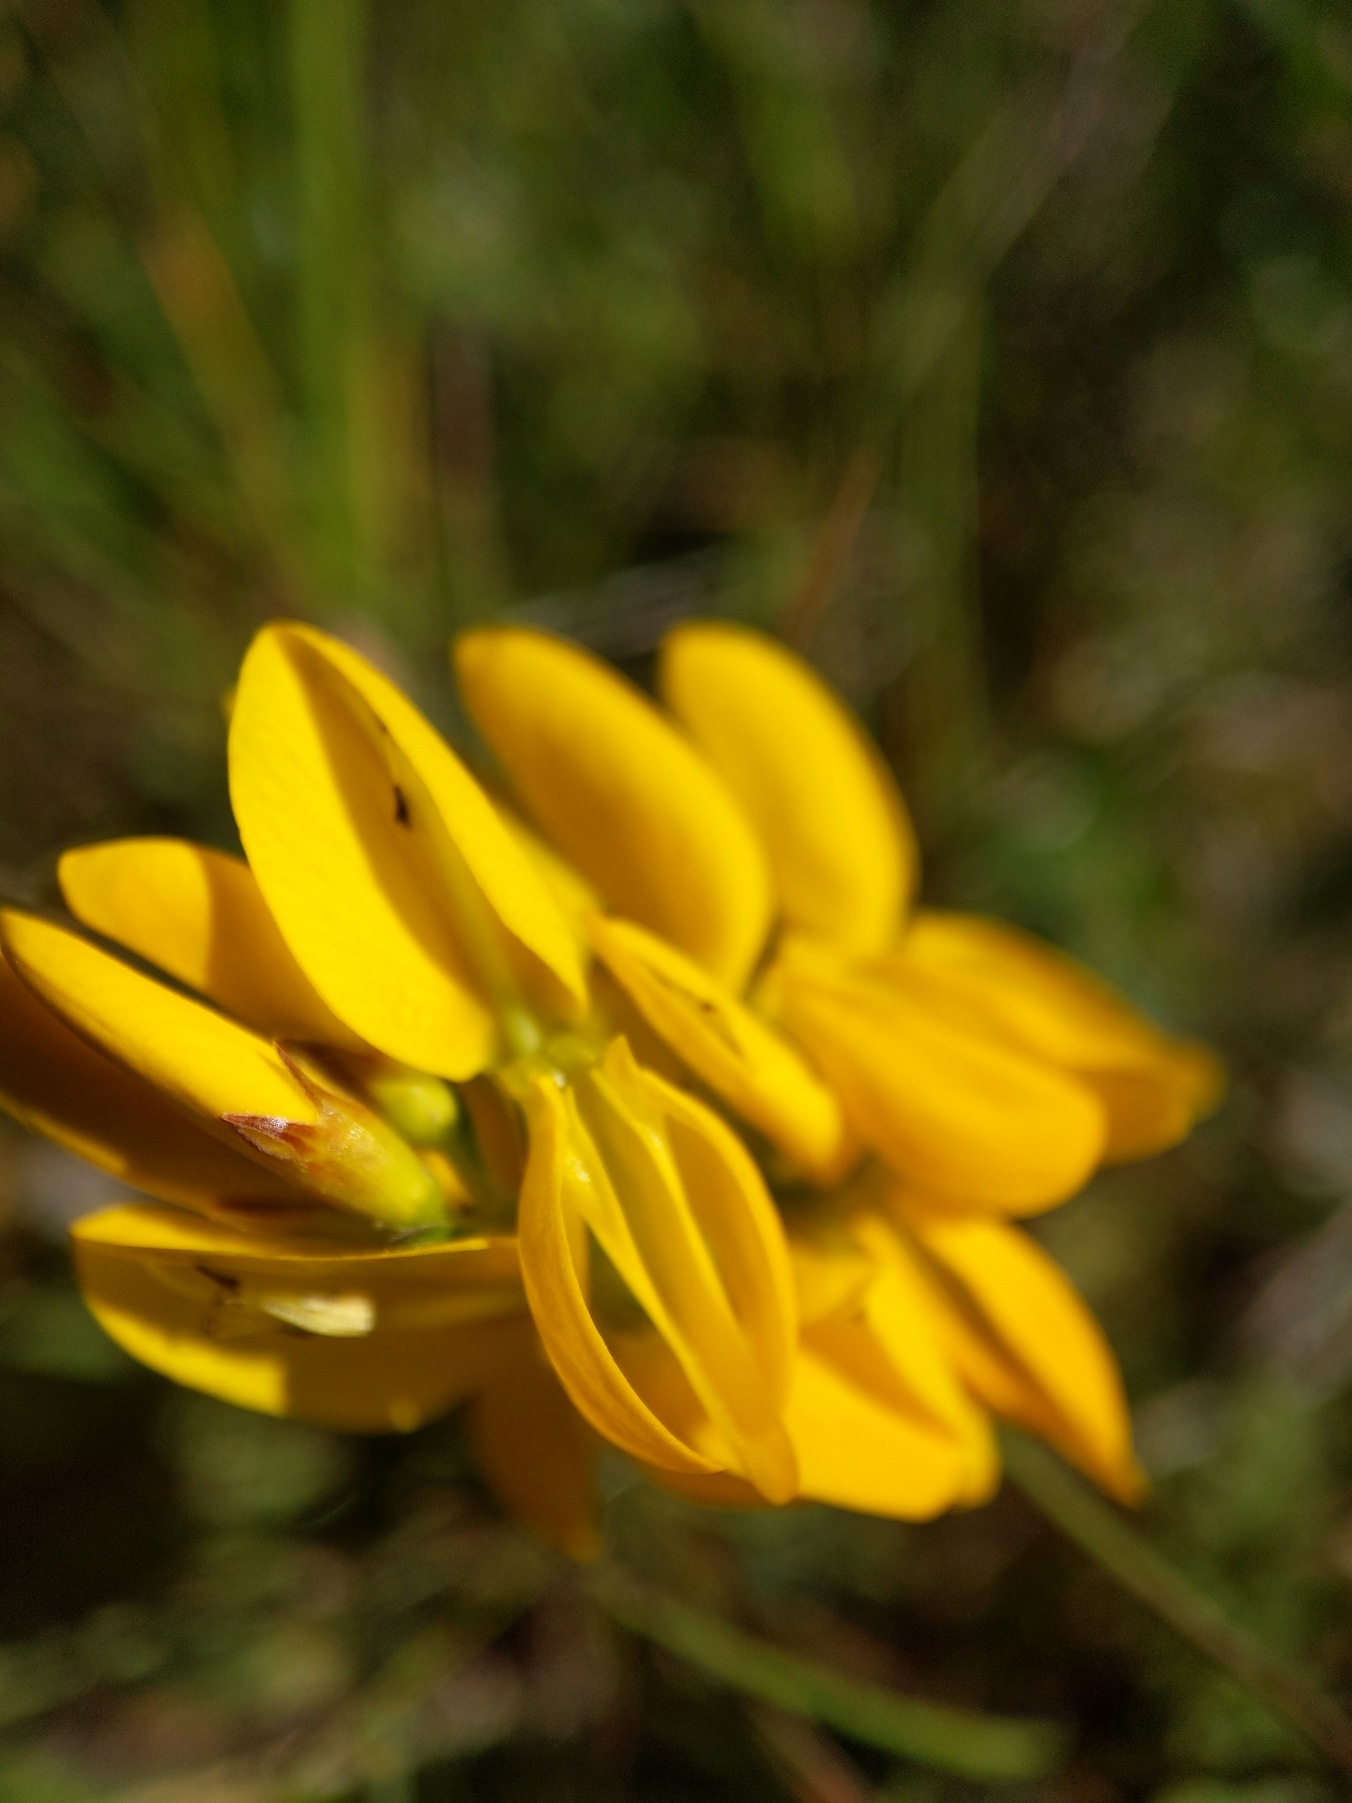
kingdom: Plantae
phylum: Tracheophyta
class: Magnoliopsida
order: Fabales
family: Fabaceae
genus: Genista
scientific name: Genista pilosa
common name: Håret visse
